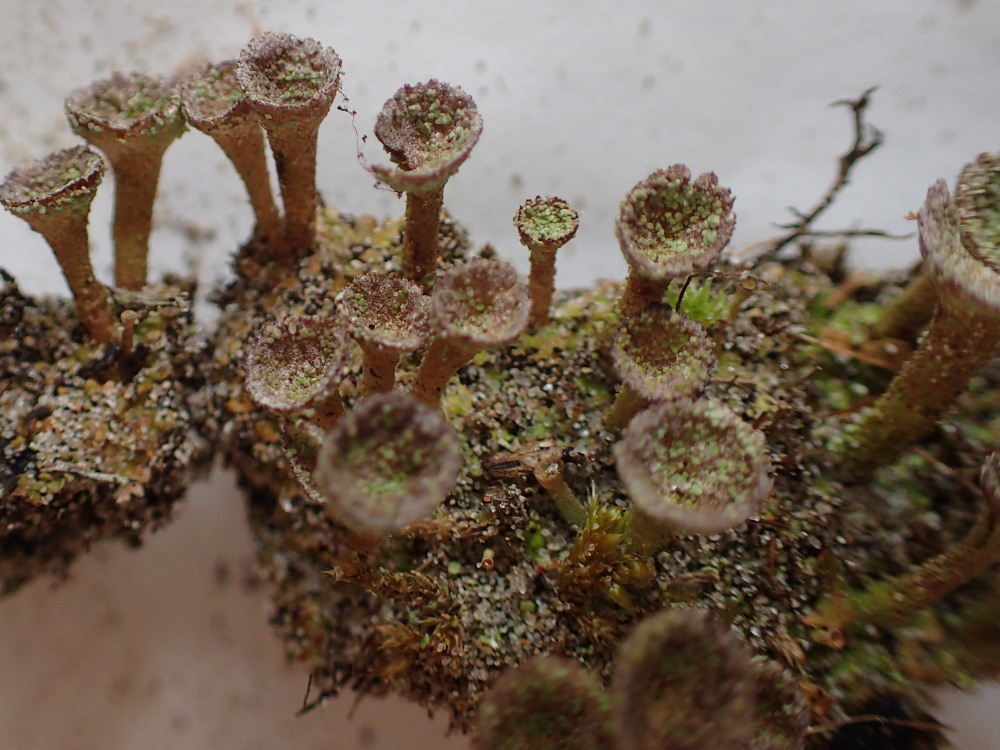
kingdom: Fungi
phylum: Ascomycota
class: Lecanoromycetes
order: Lecanorales
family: Cladoniaceae
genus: Cladonia
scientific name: Cladonia pyxidata
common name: tragt-bægerlav
